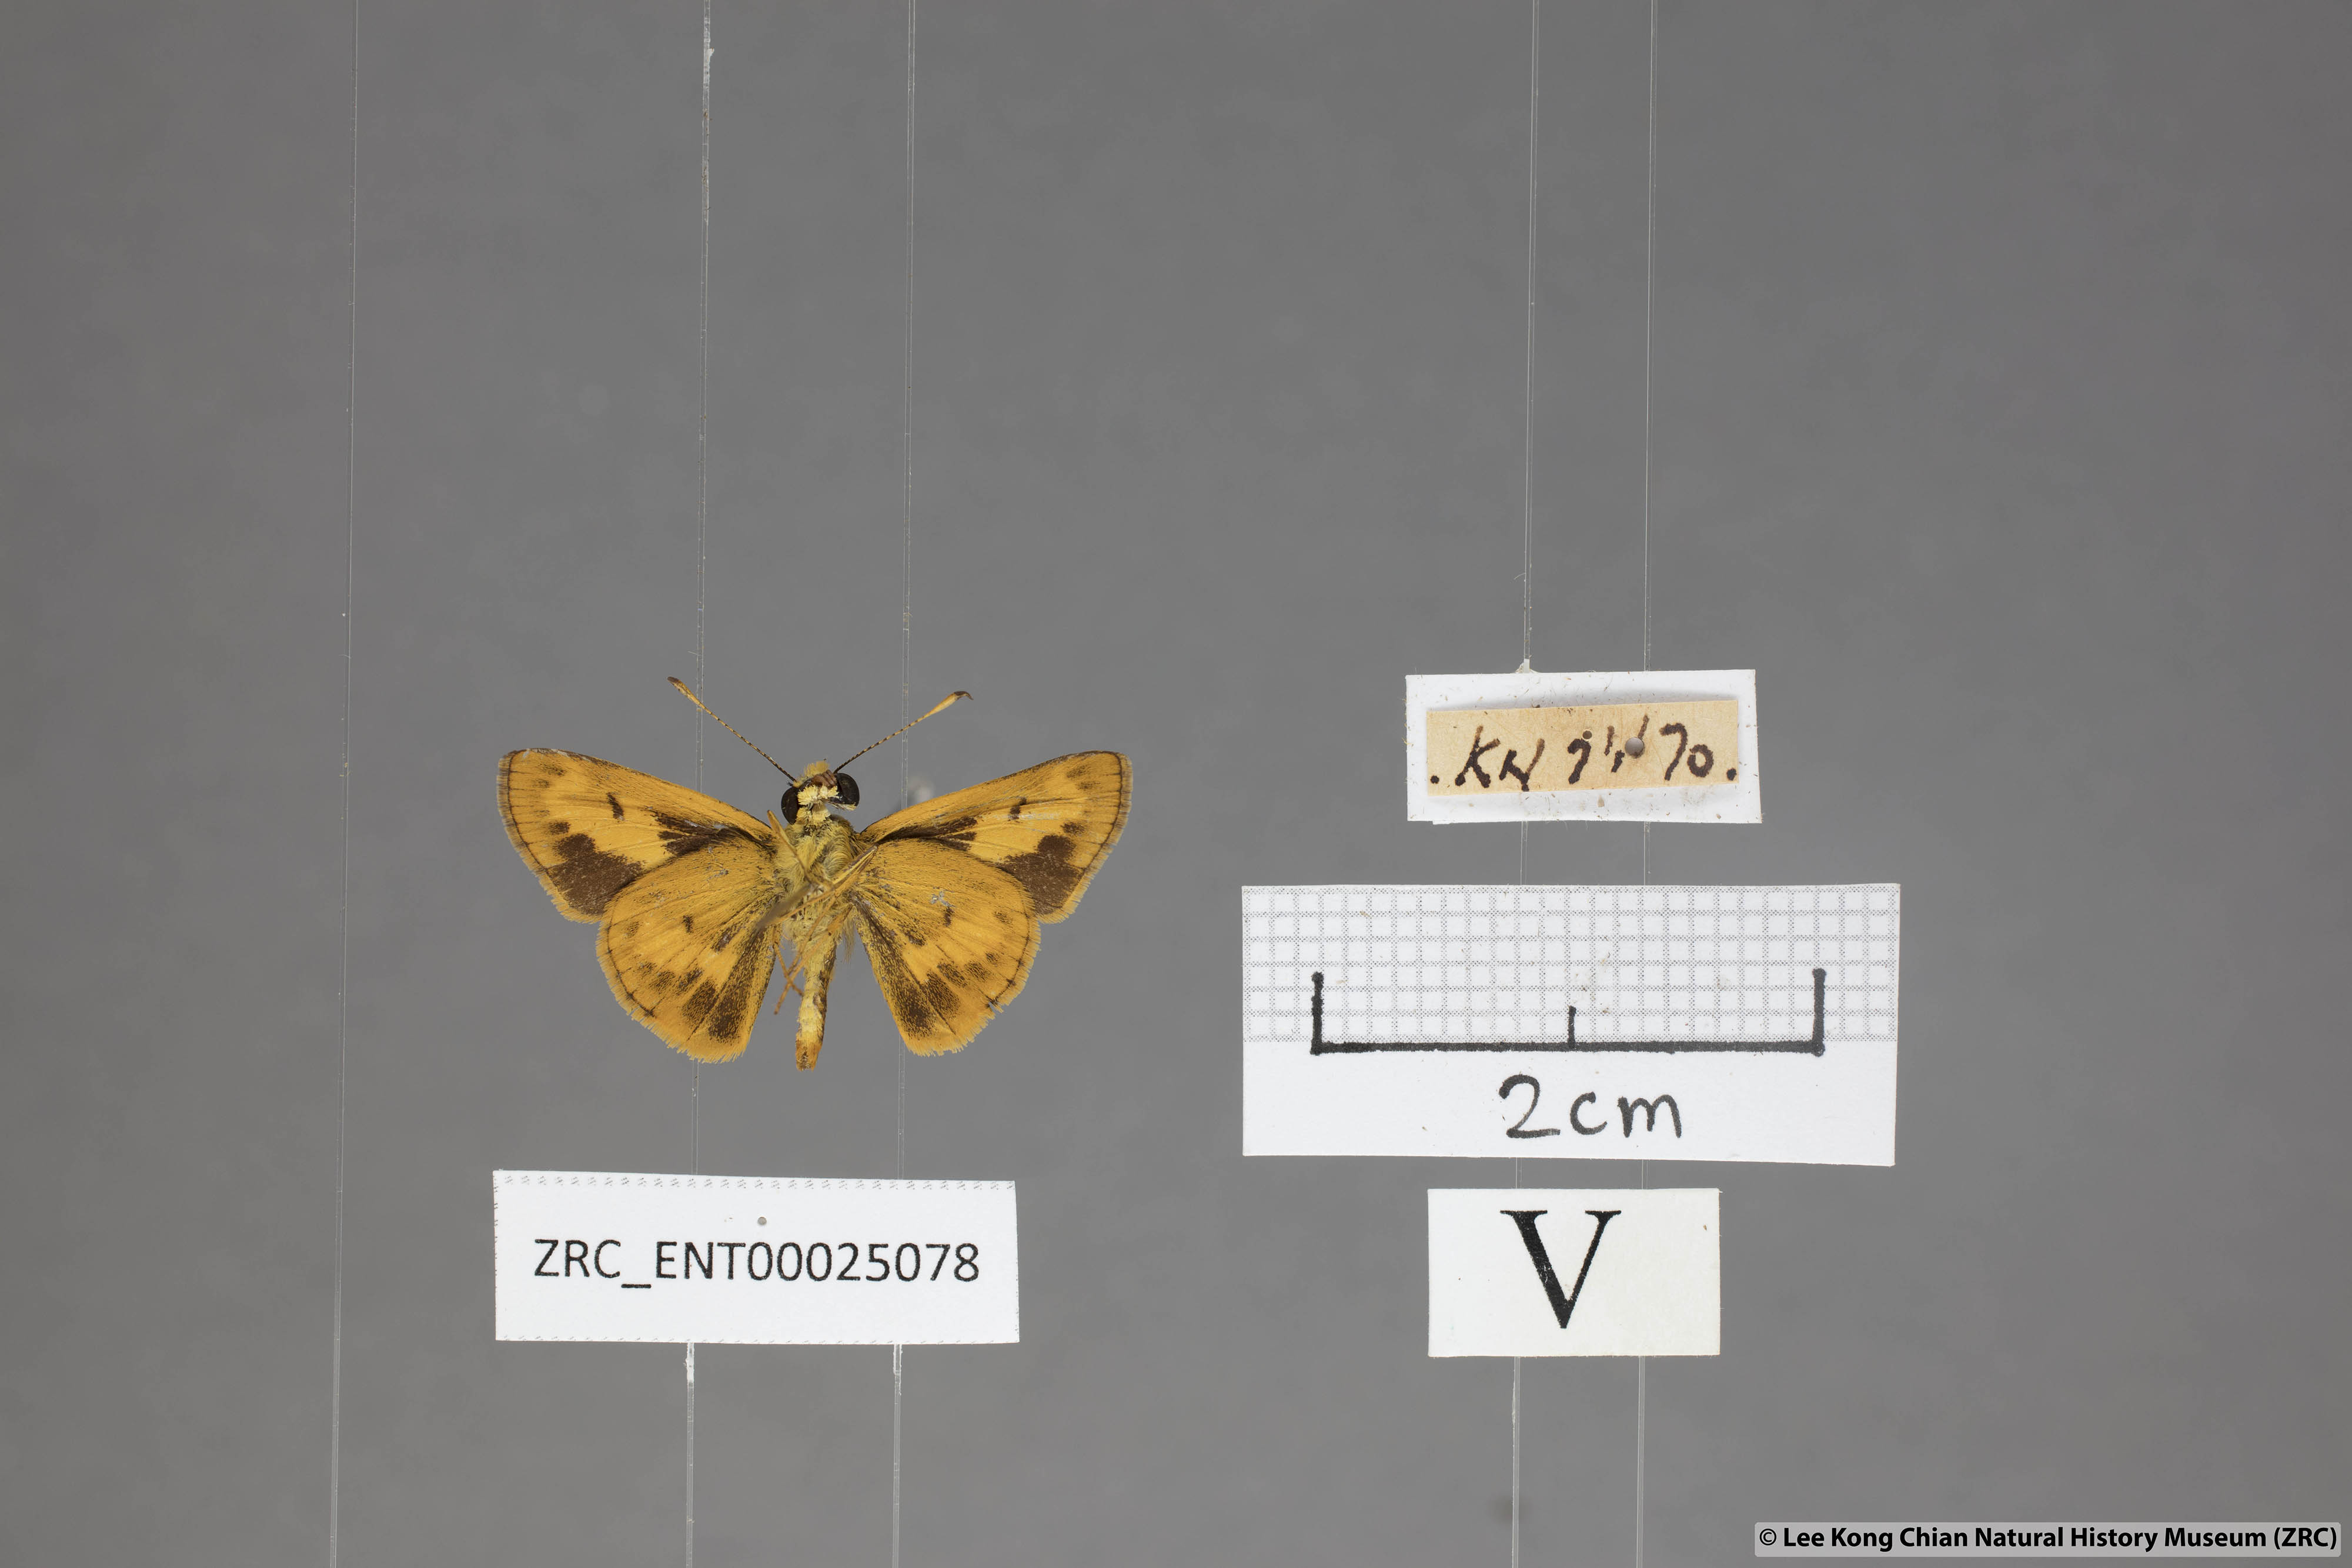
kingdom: Animalia
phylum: Arthropoda
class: Insecta
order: Lepidoptera
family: Hesperiidae
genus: Oriens
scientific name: Oriens gola
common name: Common dartlet
